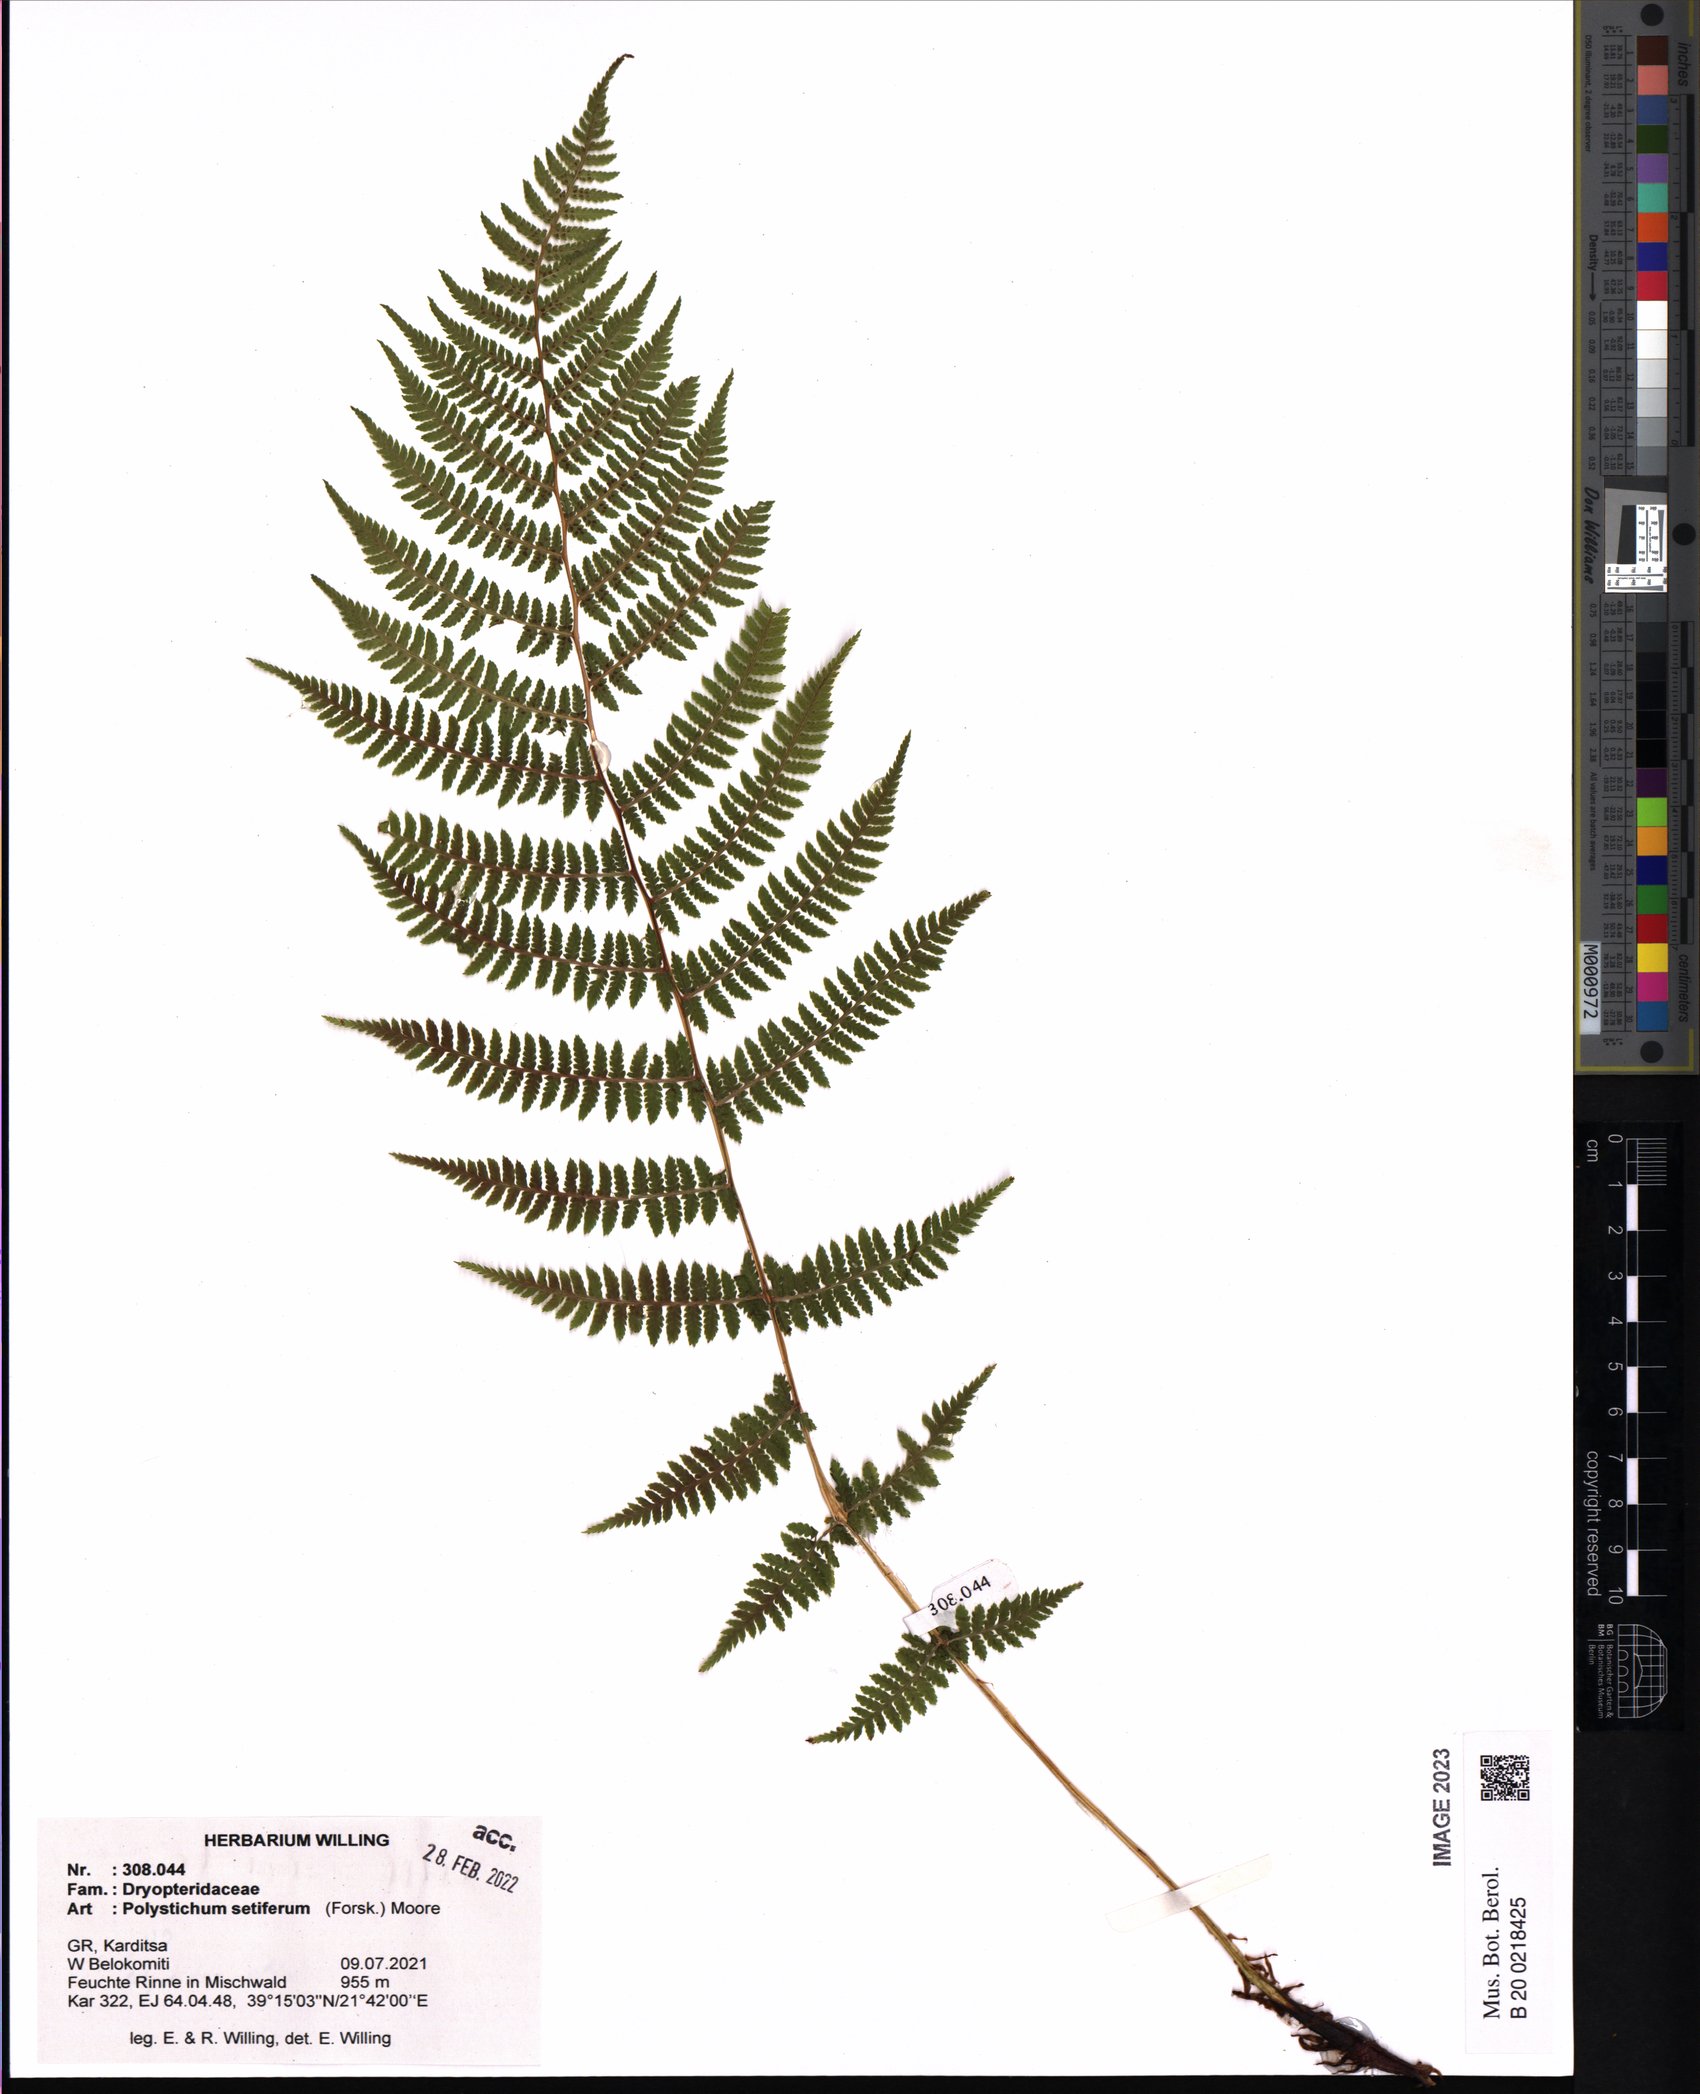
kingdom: Plantae
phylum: Tracheophyta
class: Polypodiopsida
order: Polypodiales
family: Dryopteridaceae
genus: Polystichum
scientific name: Polystichum setiferum
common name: Soft shield-fern
